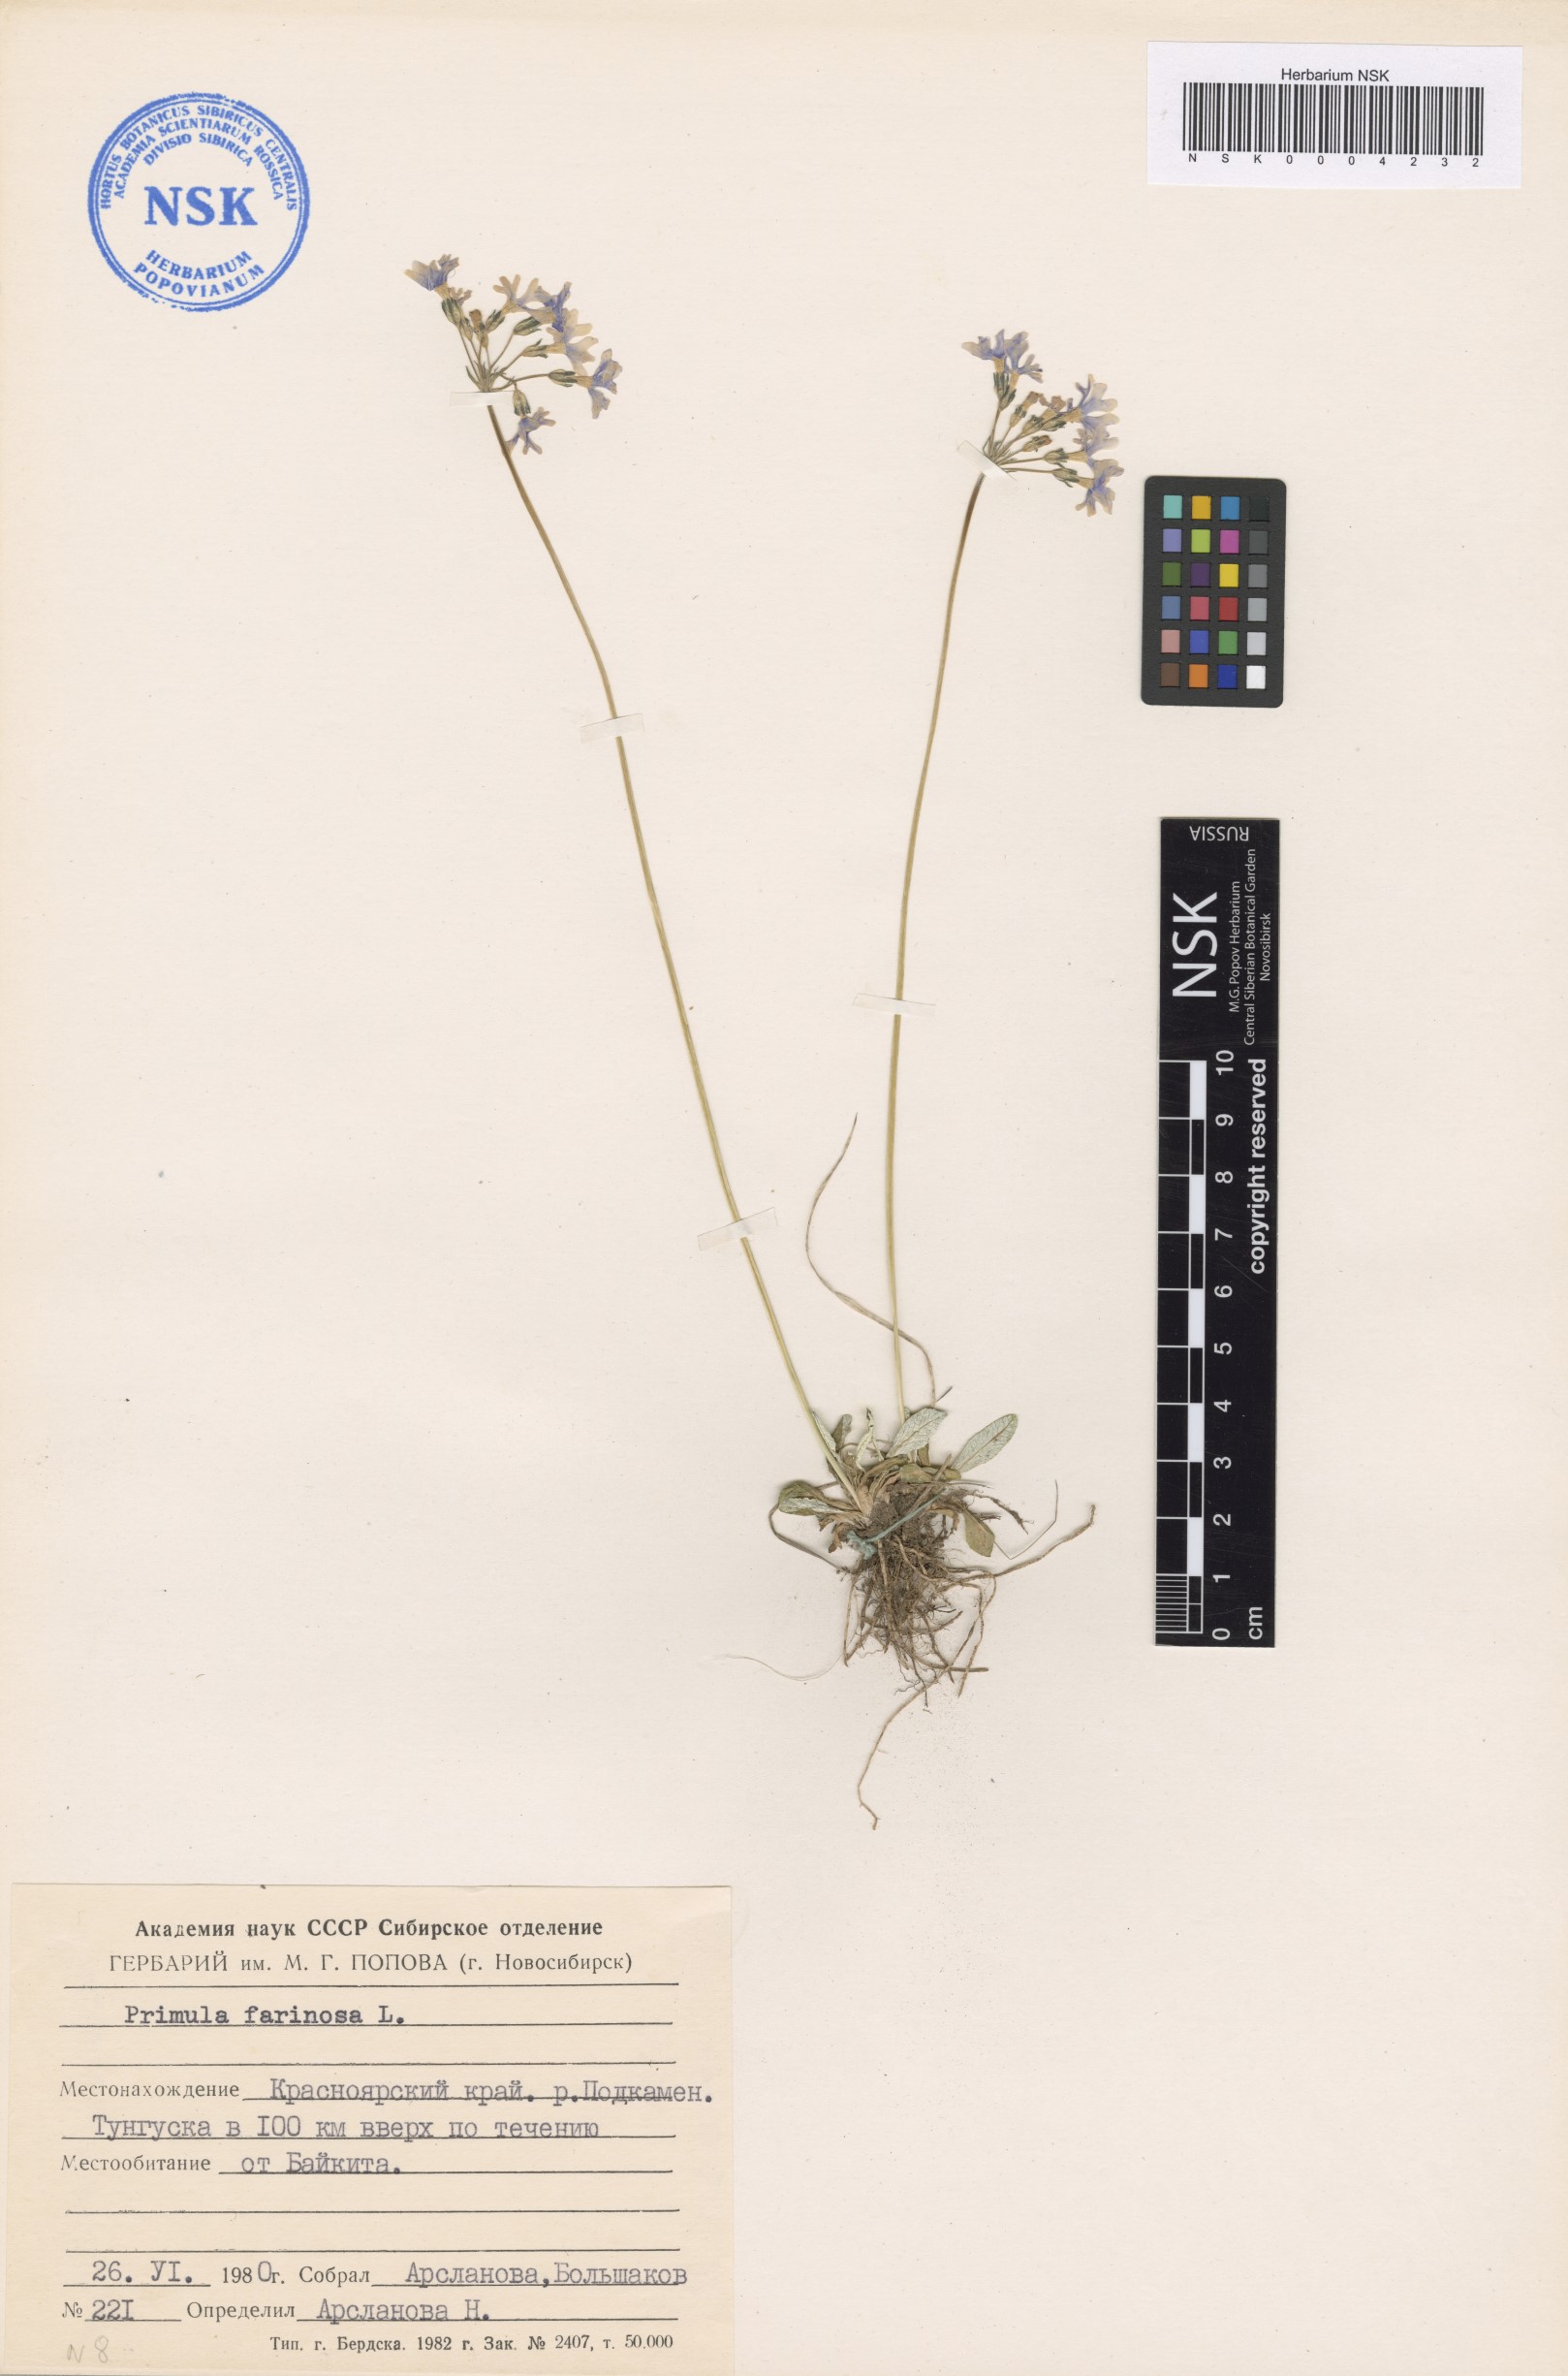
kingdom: Plantae
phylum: Tracheophyta
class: Magnoliopsida
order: Ericales
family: Primulaceae
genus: Primula
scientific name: Primula farinosa
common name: Bird's-eye primrose
